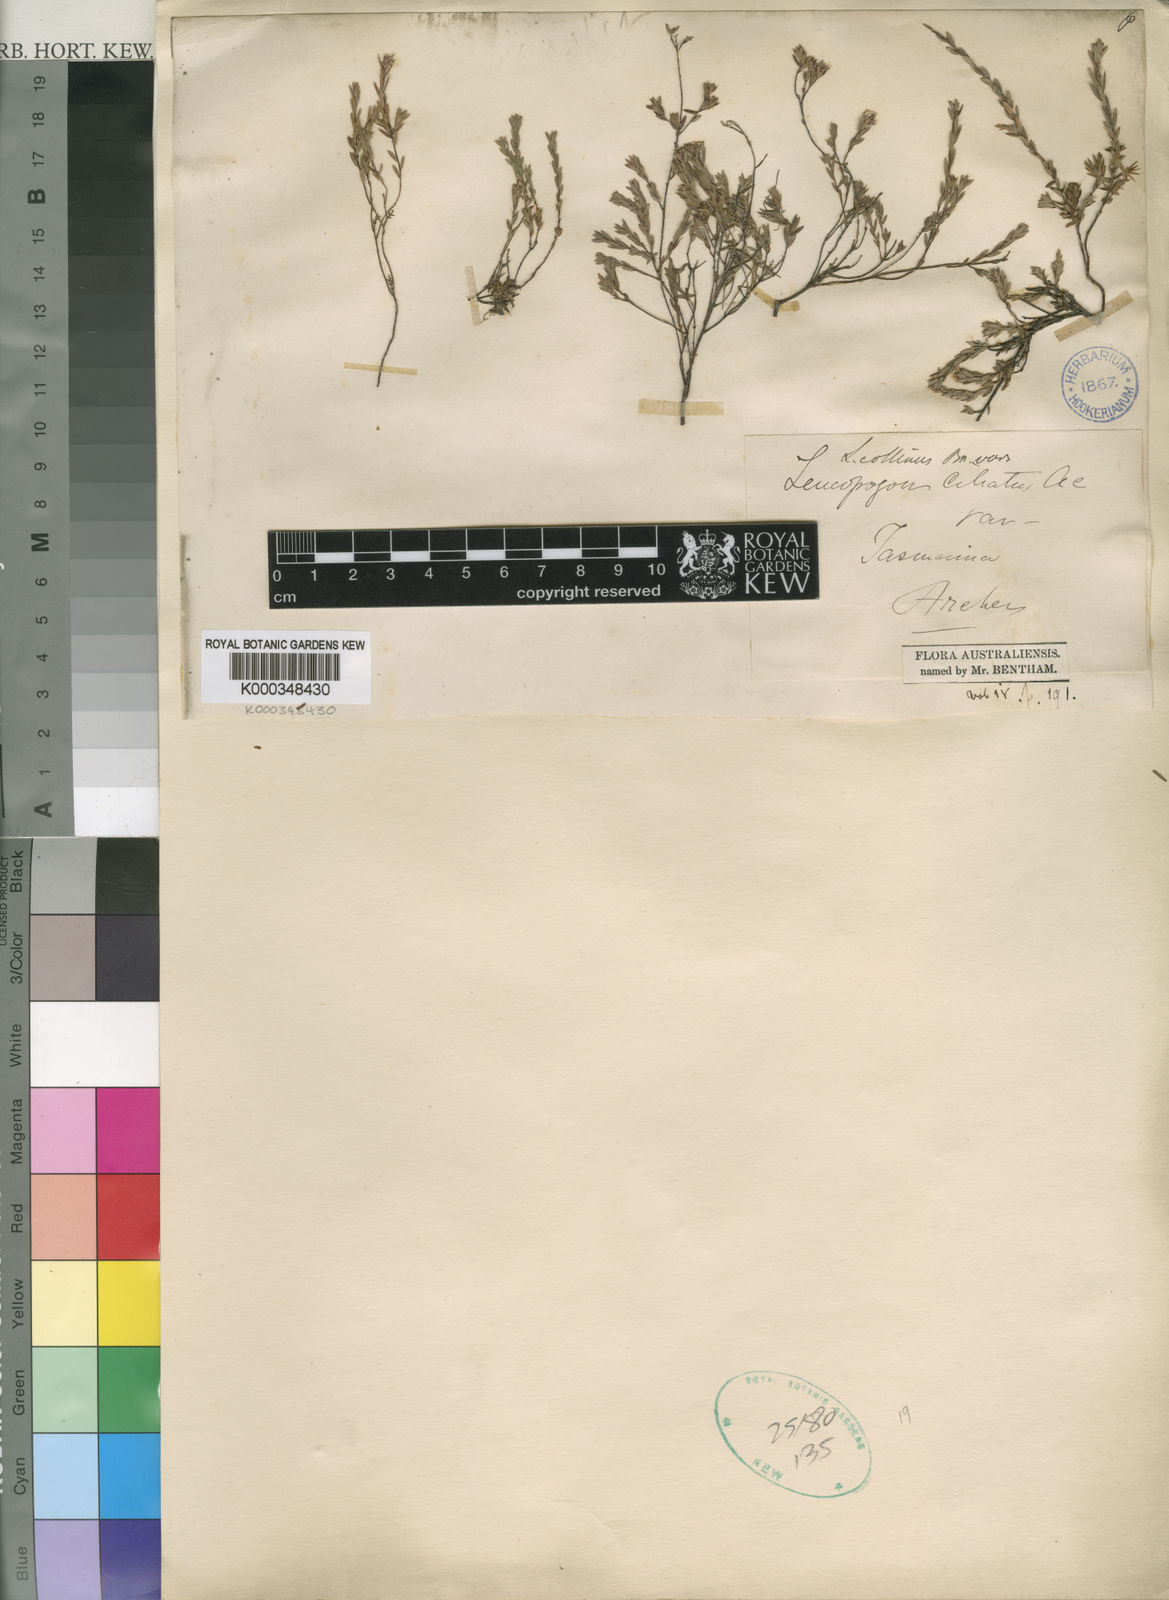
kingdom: Plantae
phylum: Tracheophyta
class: Magnoliopsida
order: Ericales
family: Ericaceae
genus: Leucopogon
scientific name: Leucopogon collinus
